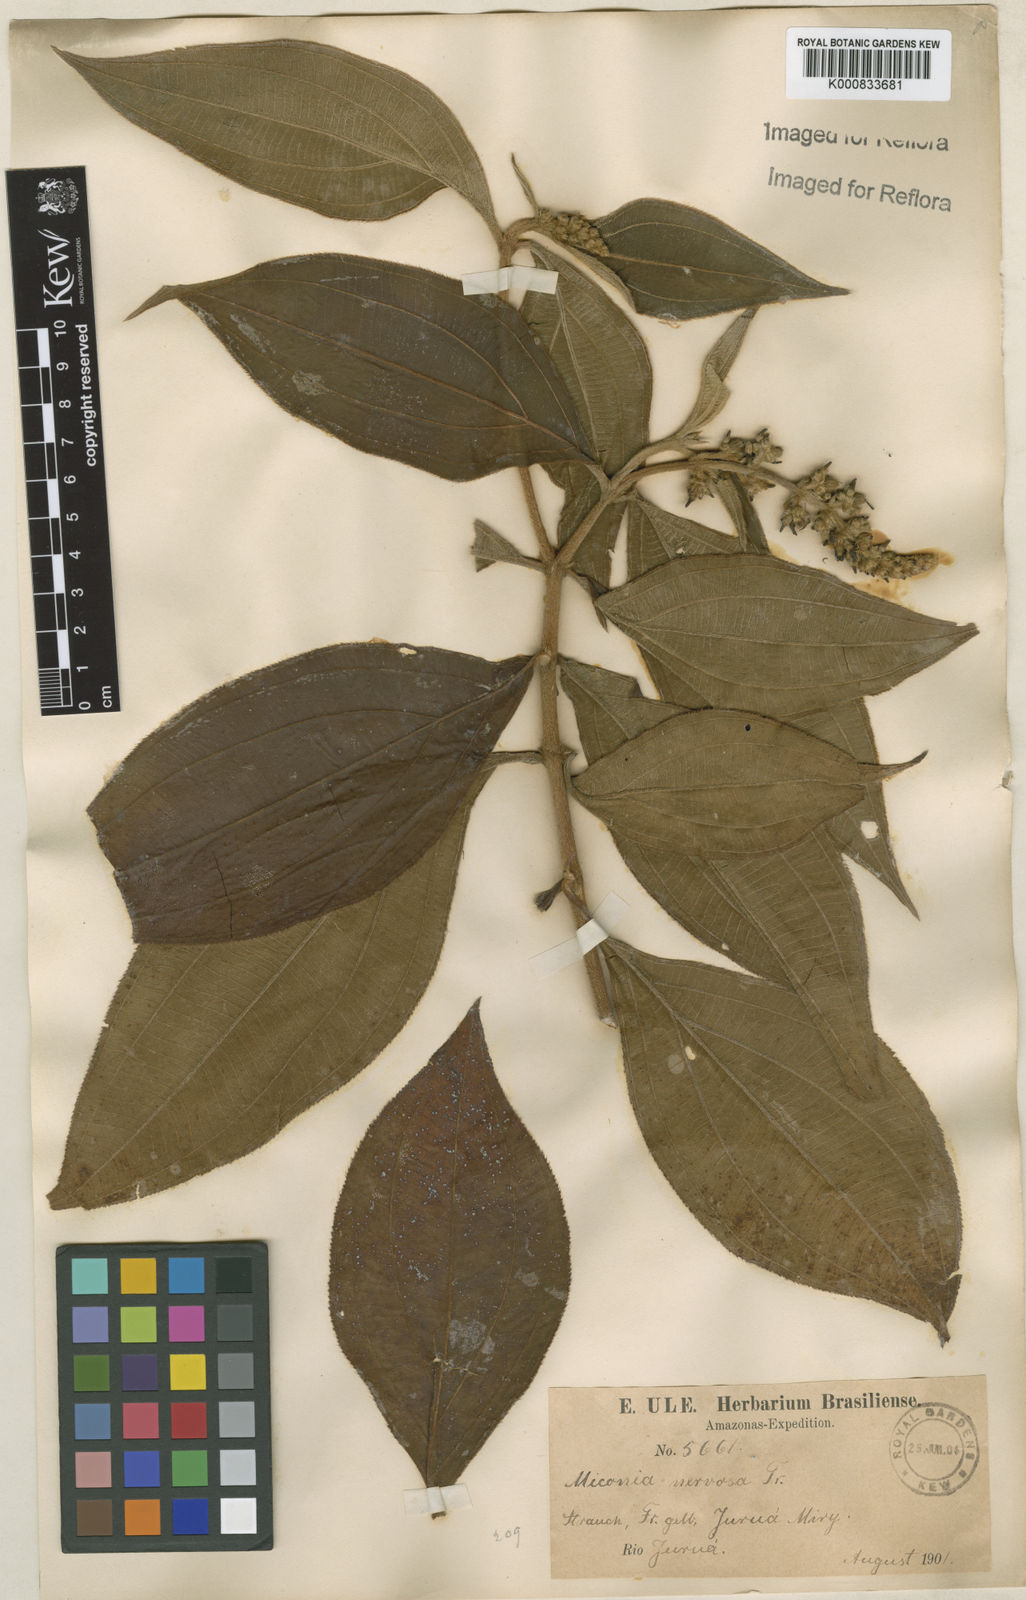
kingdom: Plantae
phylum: Tracheophyta
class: Magnoliopsida
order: Myrtales
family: Melastomataceae
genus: Miconia
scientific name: Miconia nervosa
